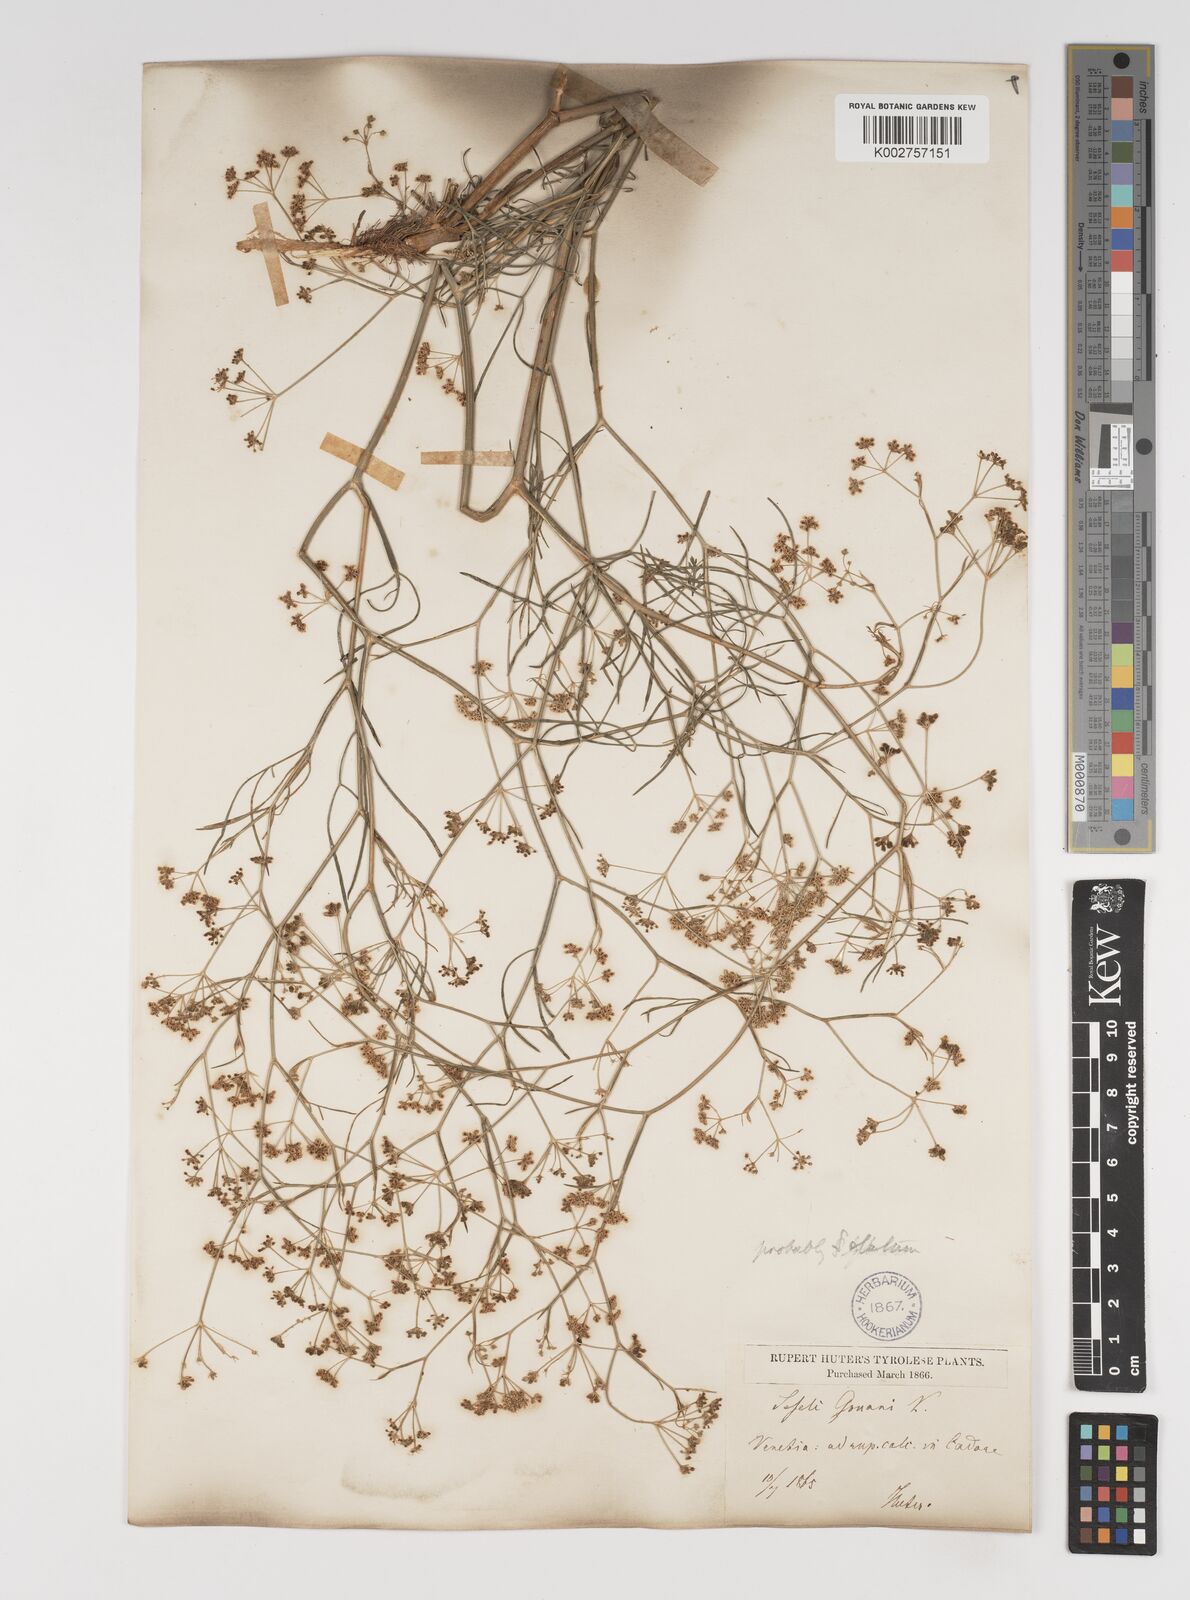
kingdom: Plantae
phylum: Tracheophyta
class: Magnoliopsida
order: Apiales
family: Apiaceae
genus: Seseli
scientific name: Seseli longifolium
